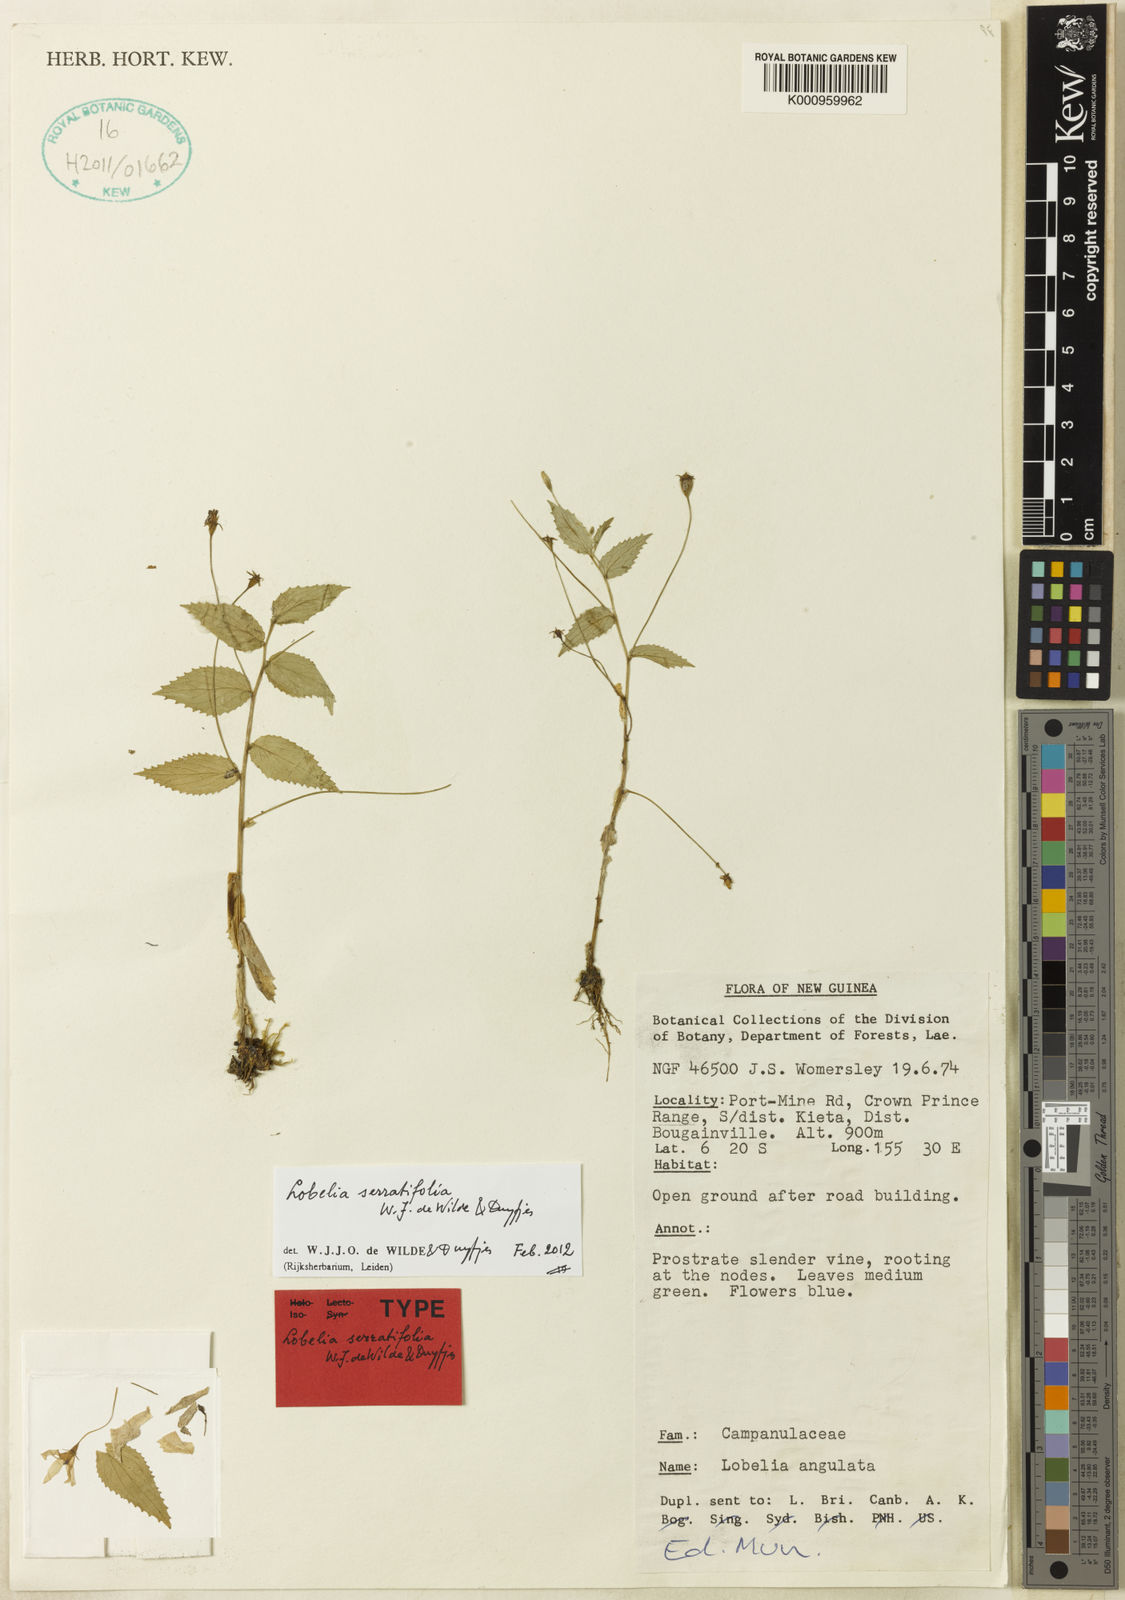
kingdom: Plantae
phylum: Tracheophyta
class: Magnoliopsida
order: Asterales
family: Campanulaceae
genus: Lobelia
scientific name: Lobelia serratifolia
